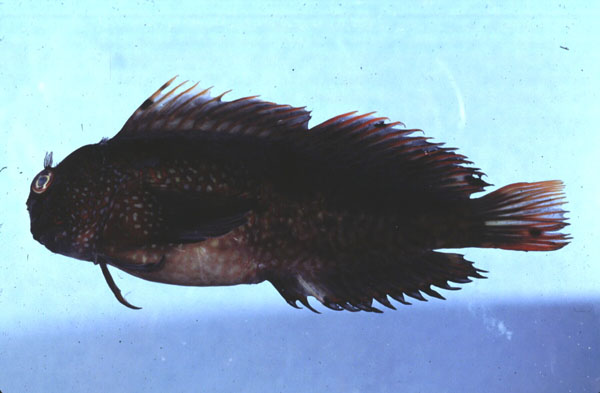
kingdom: Animalia
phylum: Chordata
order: Perciformes
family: Blenniidae
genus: Cirripectes
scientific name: Cirripectes stigmaticus
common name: Red-streaked blenny
